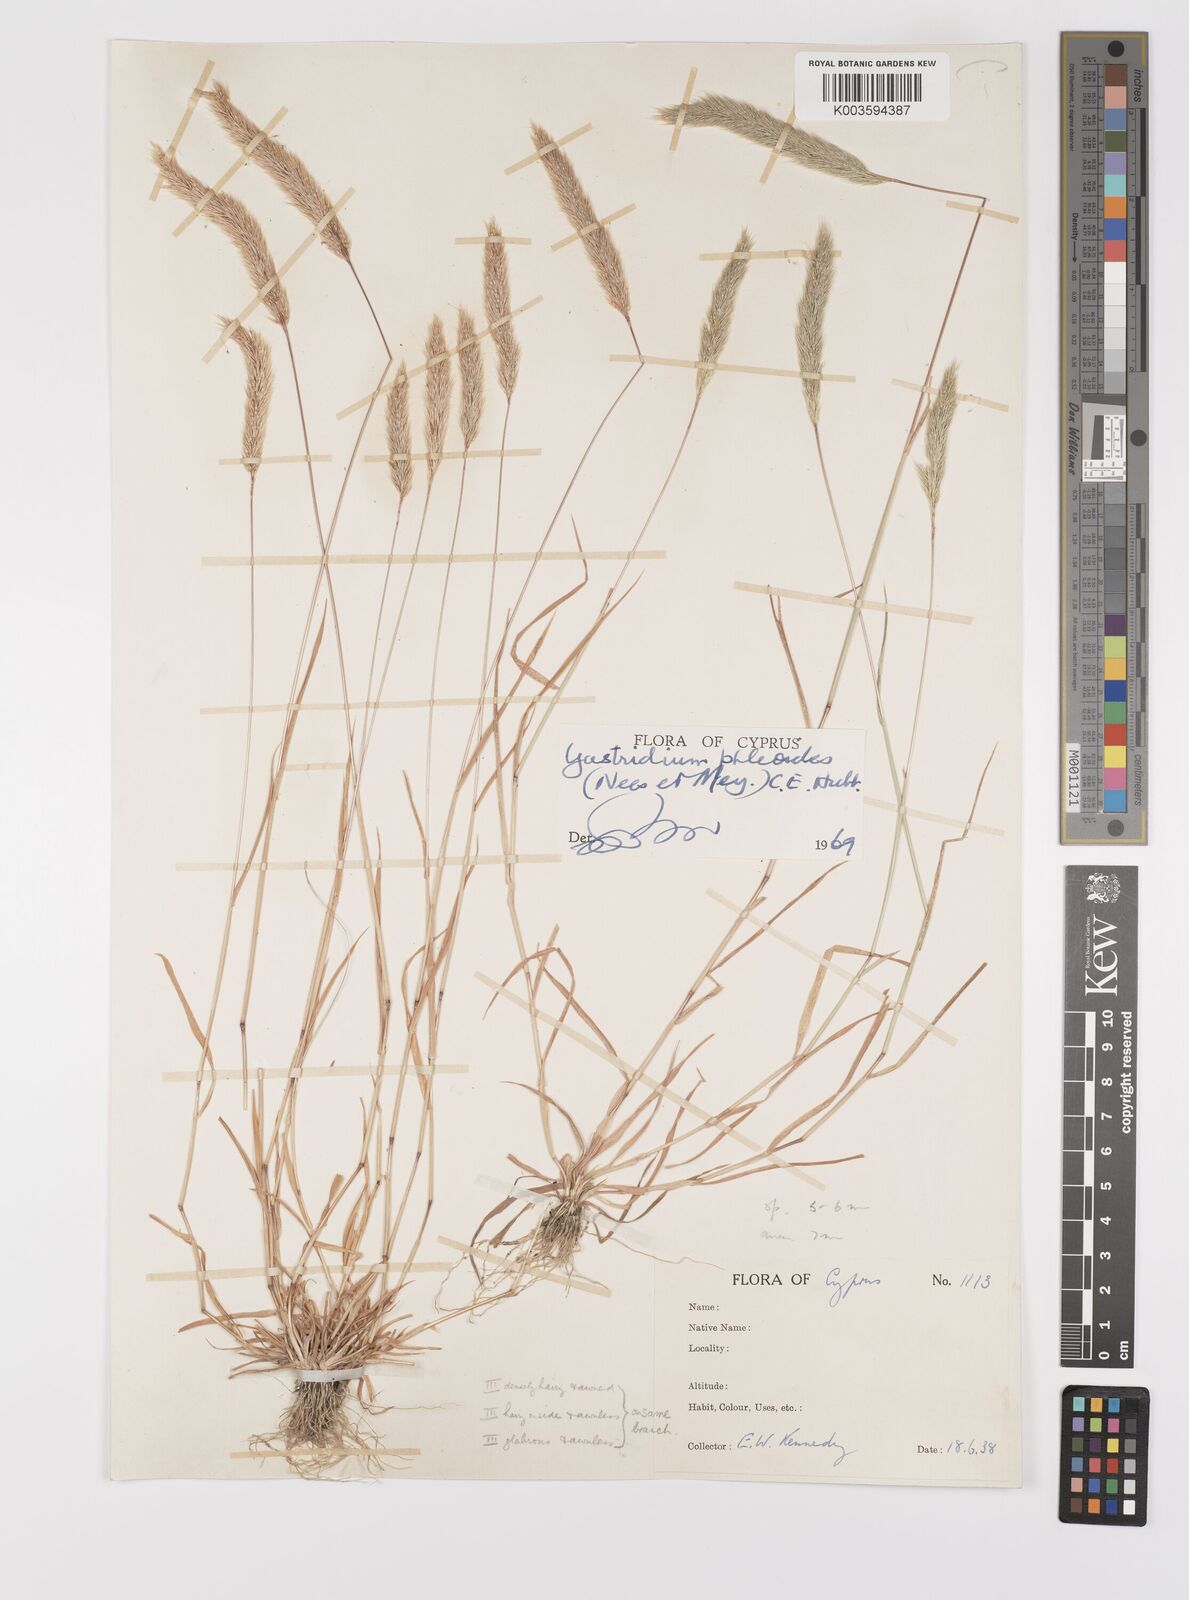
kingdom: Plantae
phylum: Tracheophyta
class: Liliopsida
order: Poales
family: Poaceae
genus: Gastridium
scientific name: Gastridium phleoides
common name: Nit grass
